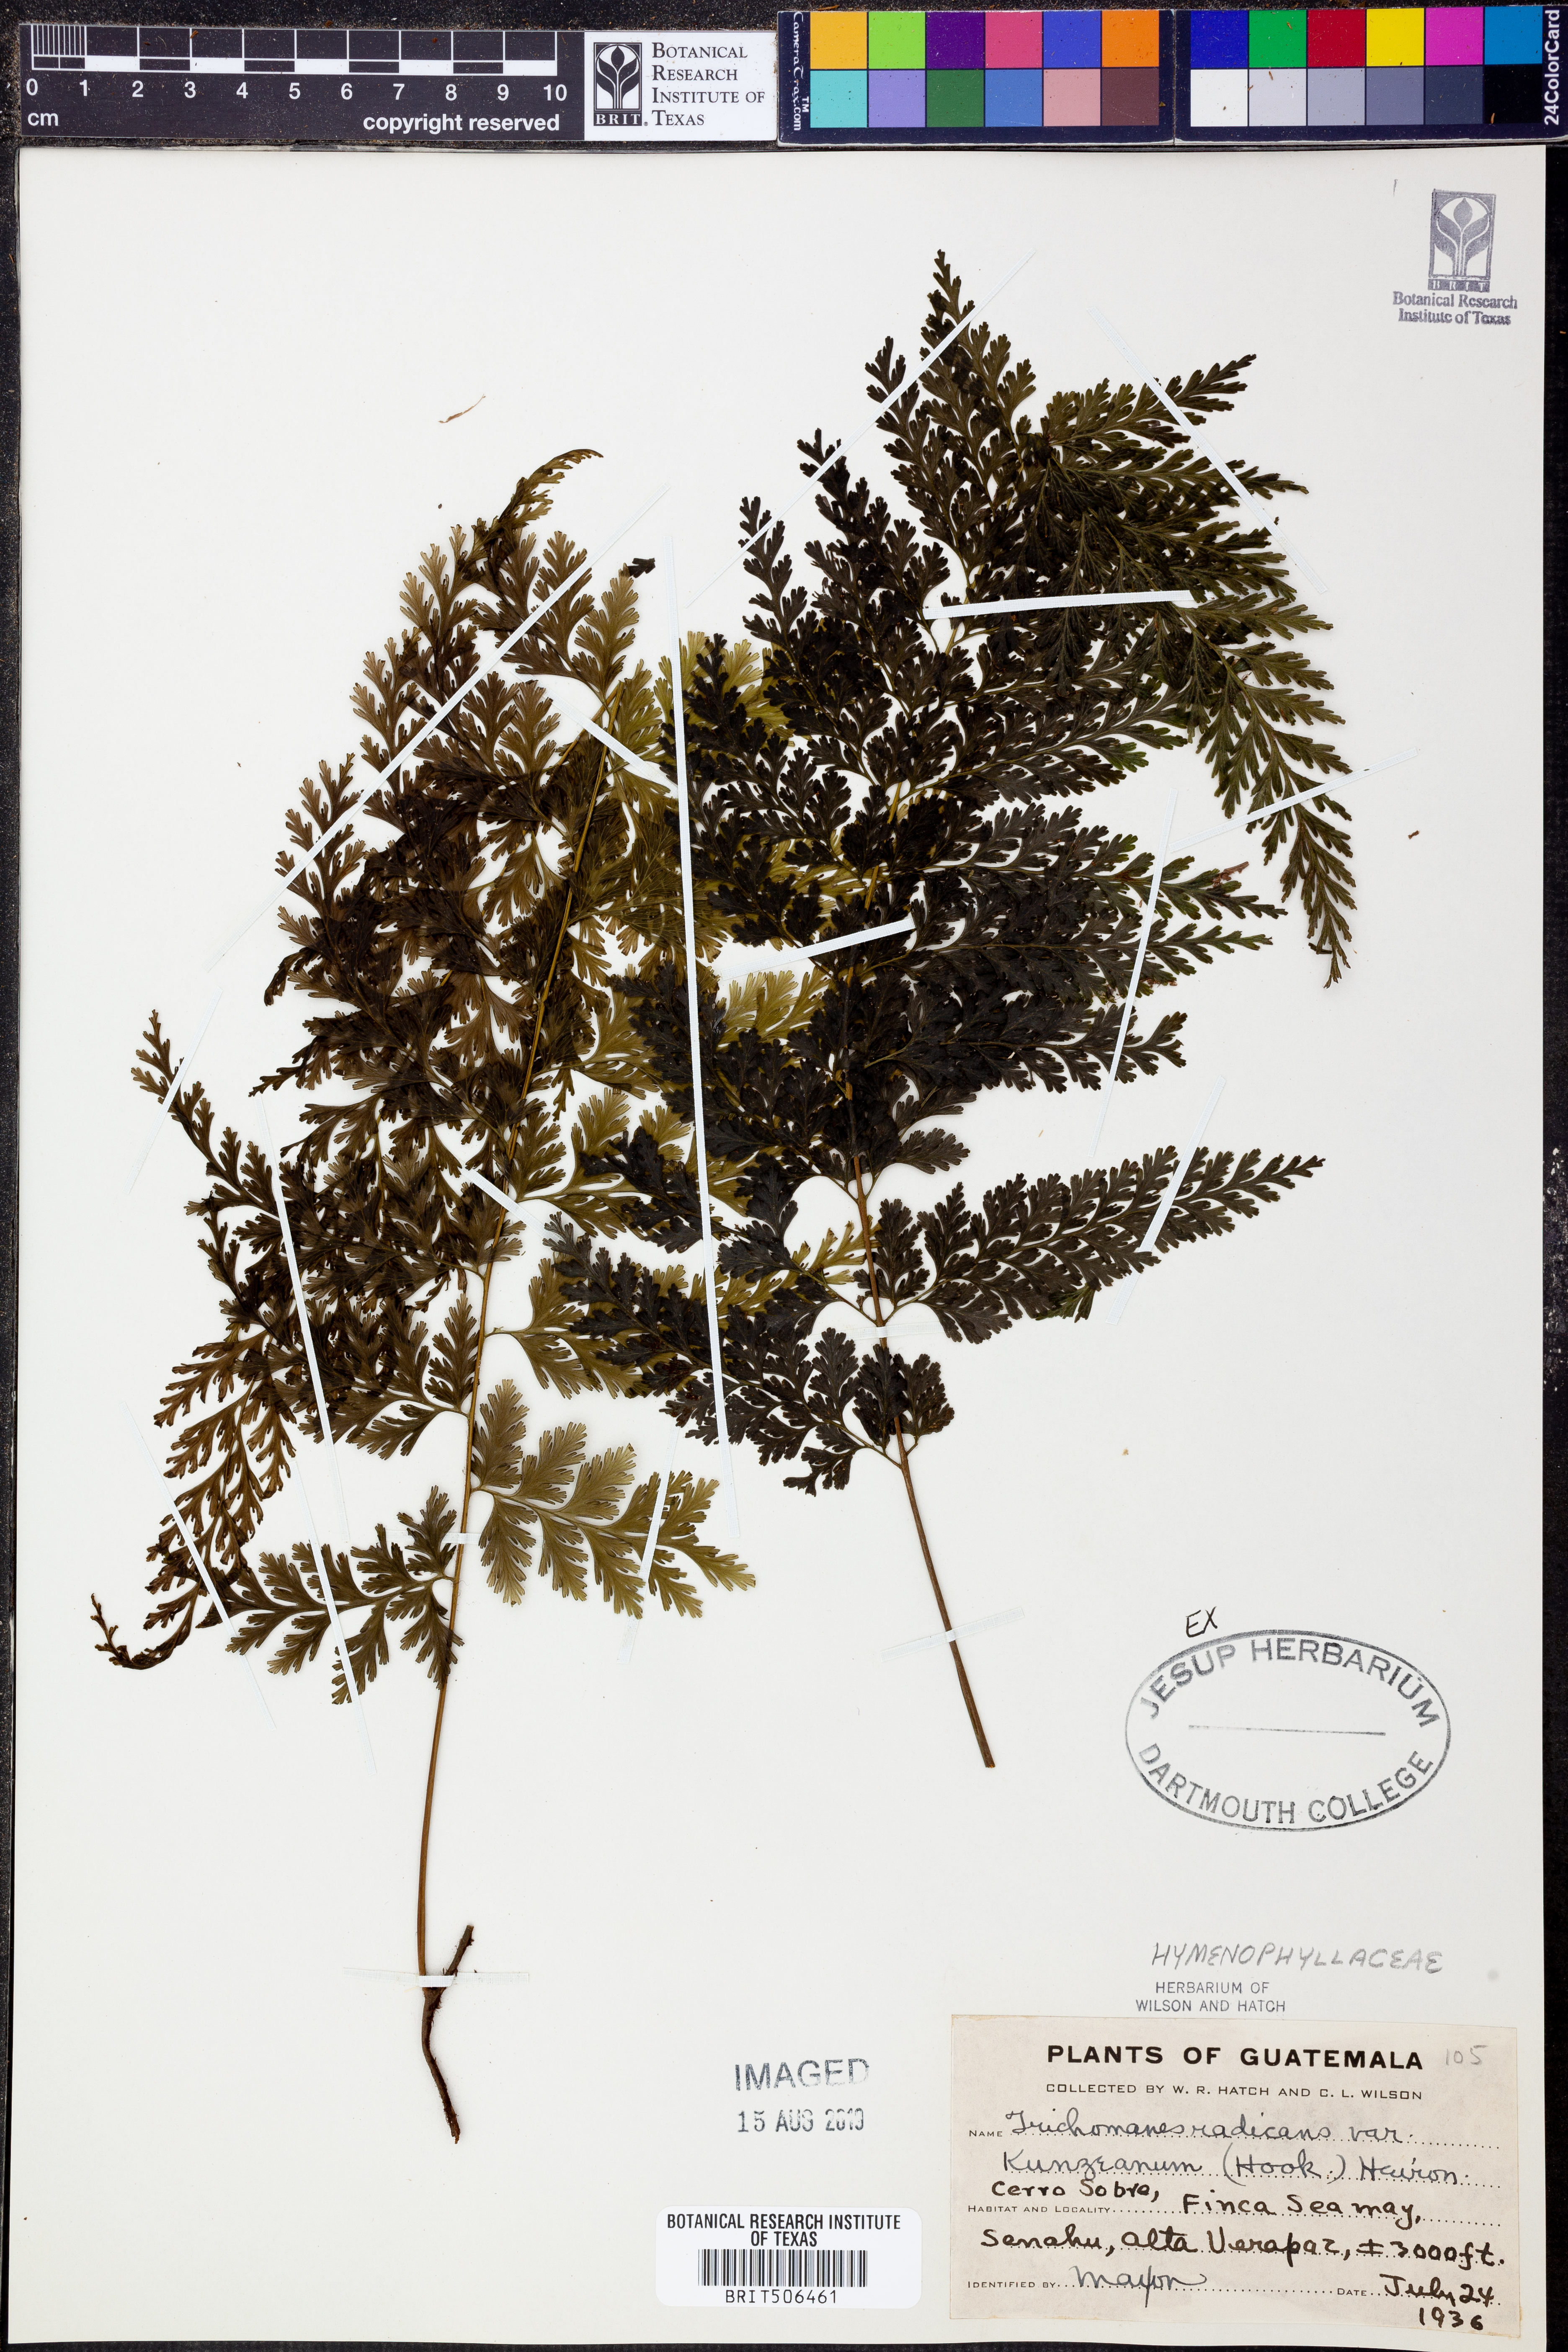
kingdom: Plantae
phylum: Tracheophyta
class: Polypodiopsida
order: Hymenophyllales
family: Hymenophyllaceae
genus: Vandenboschia
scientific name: Vandenboschia radicans
